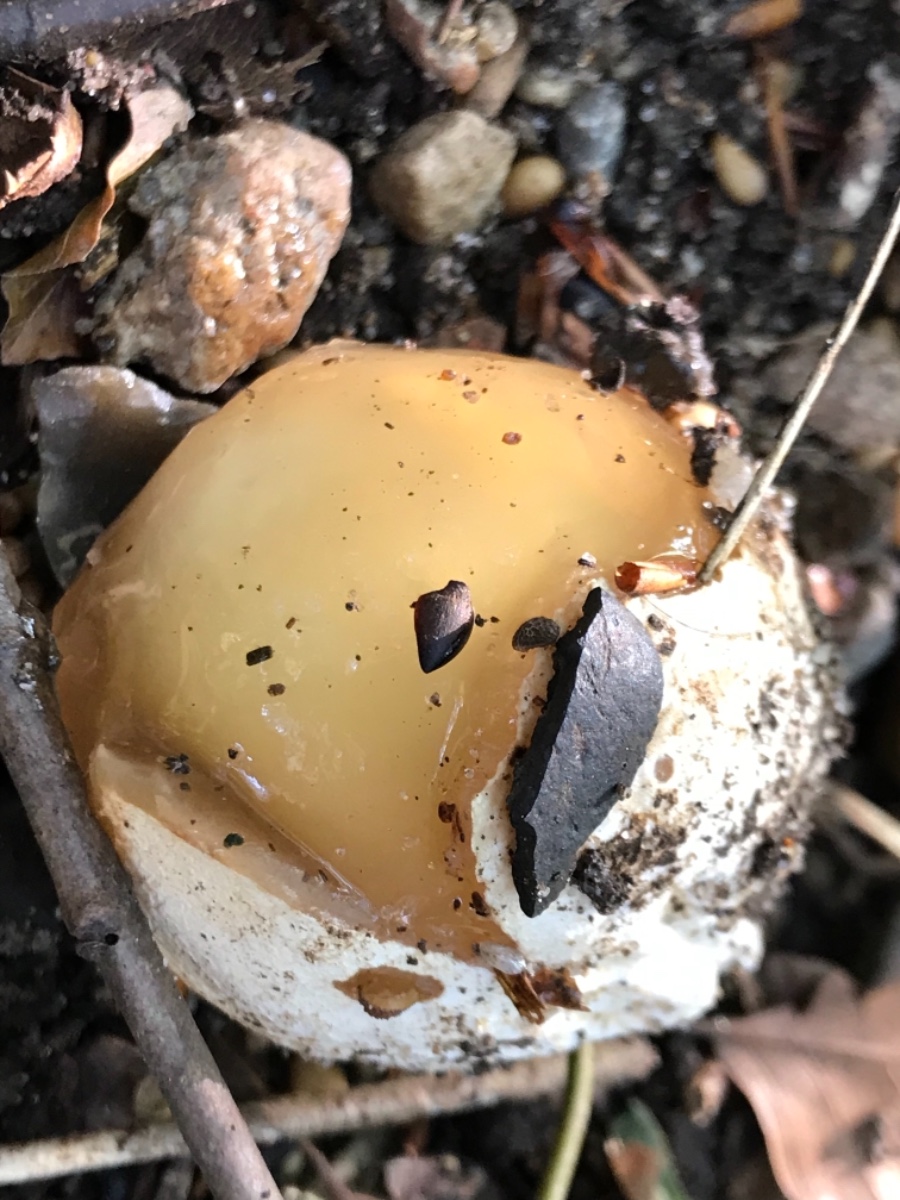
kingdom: Fungi
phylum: Basidiomycota
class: Agaricomycetes
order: Phallales
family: Phallaceae
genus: Phallus
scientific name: Phallus impudicus
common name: almindelig stinksvamp
